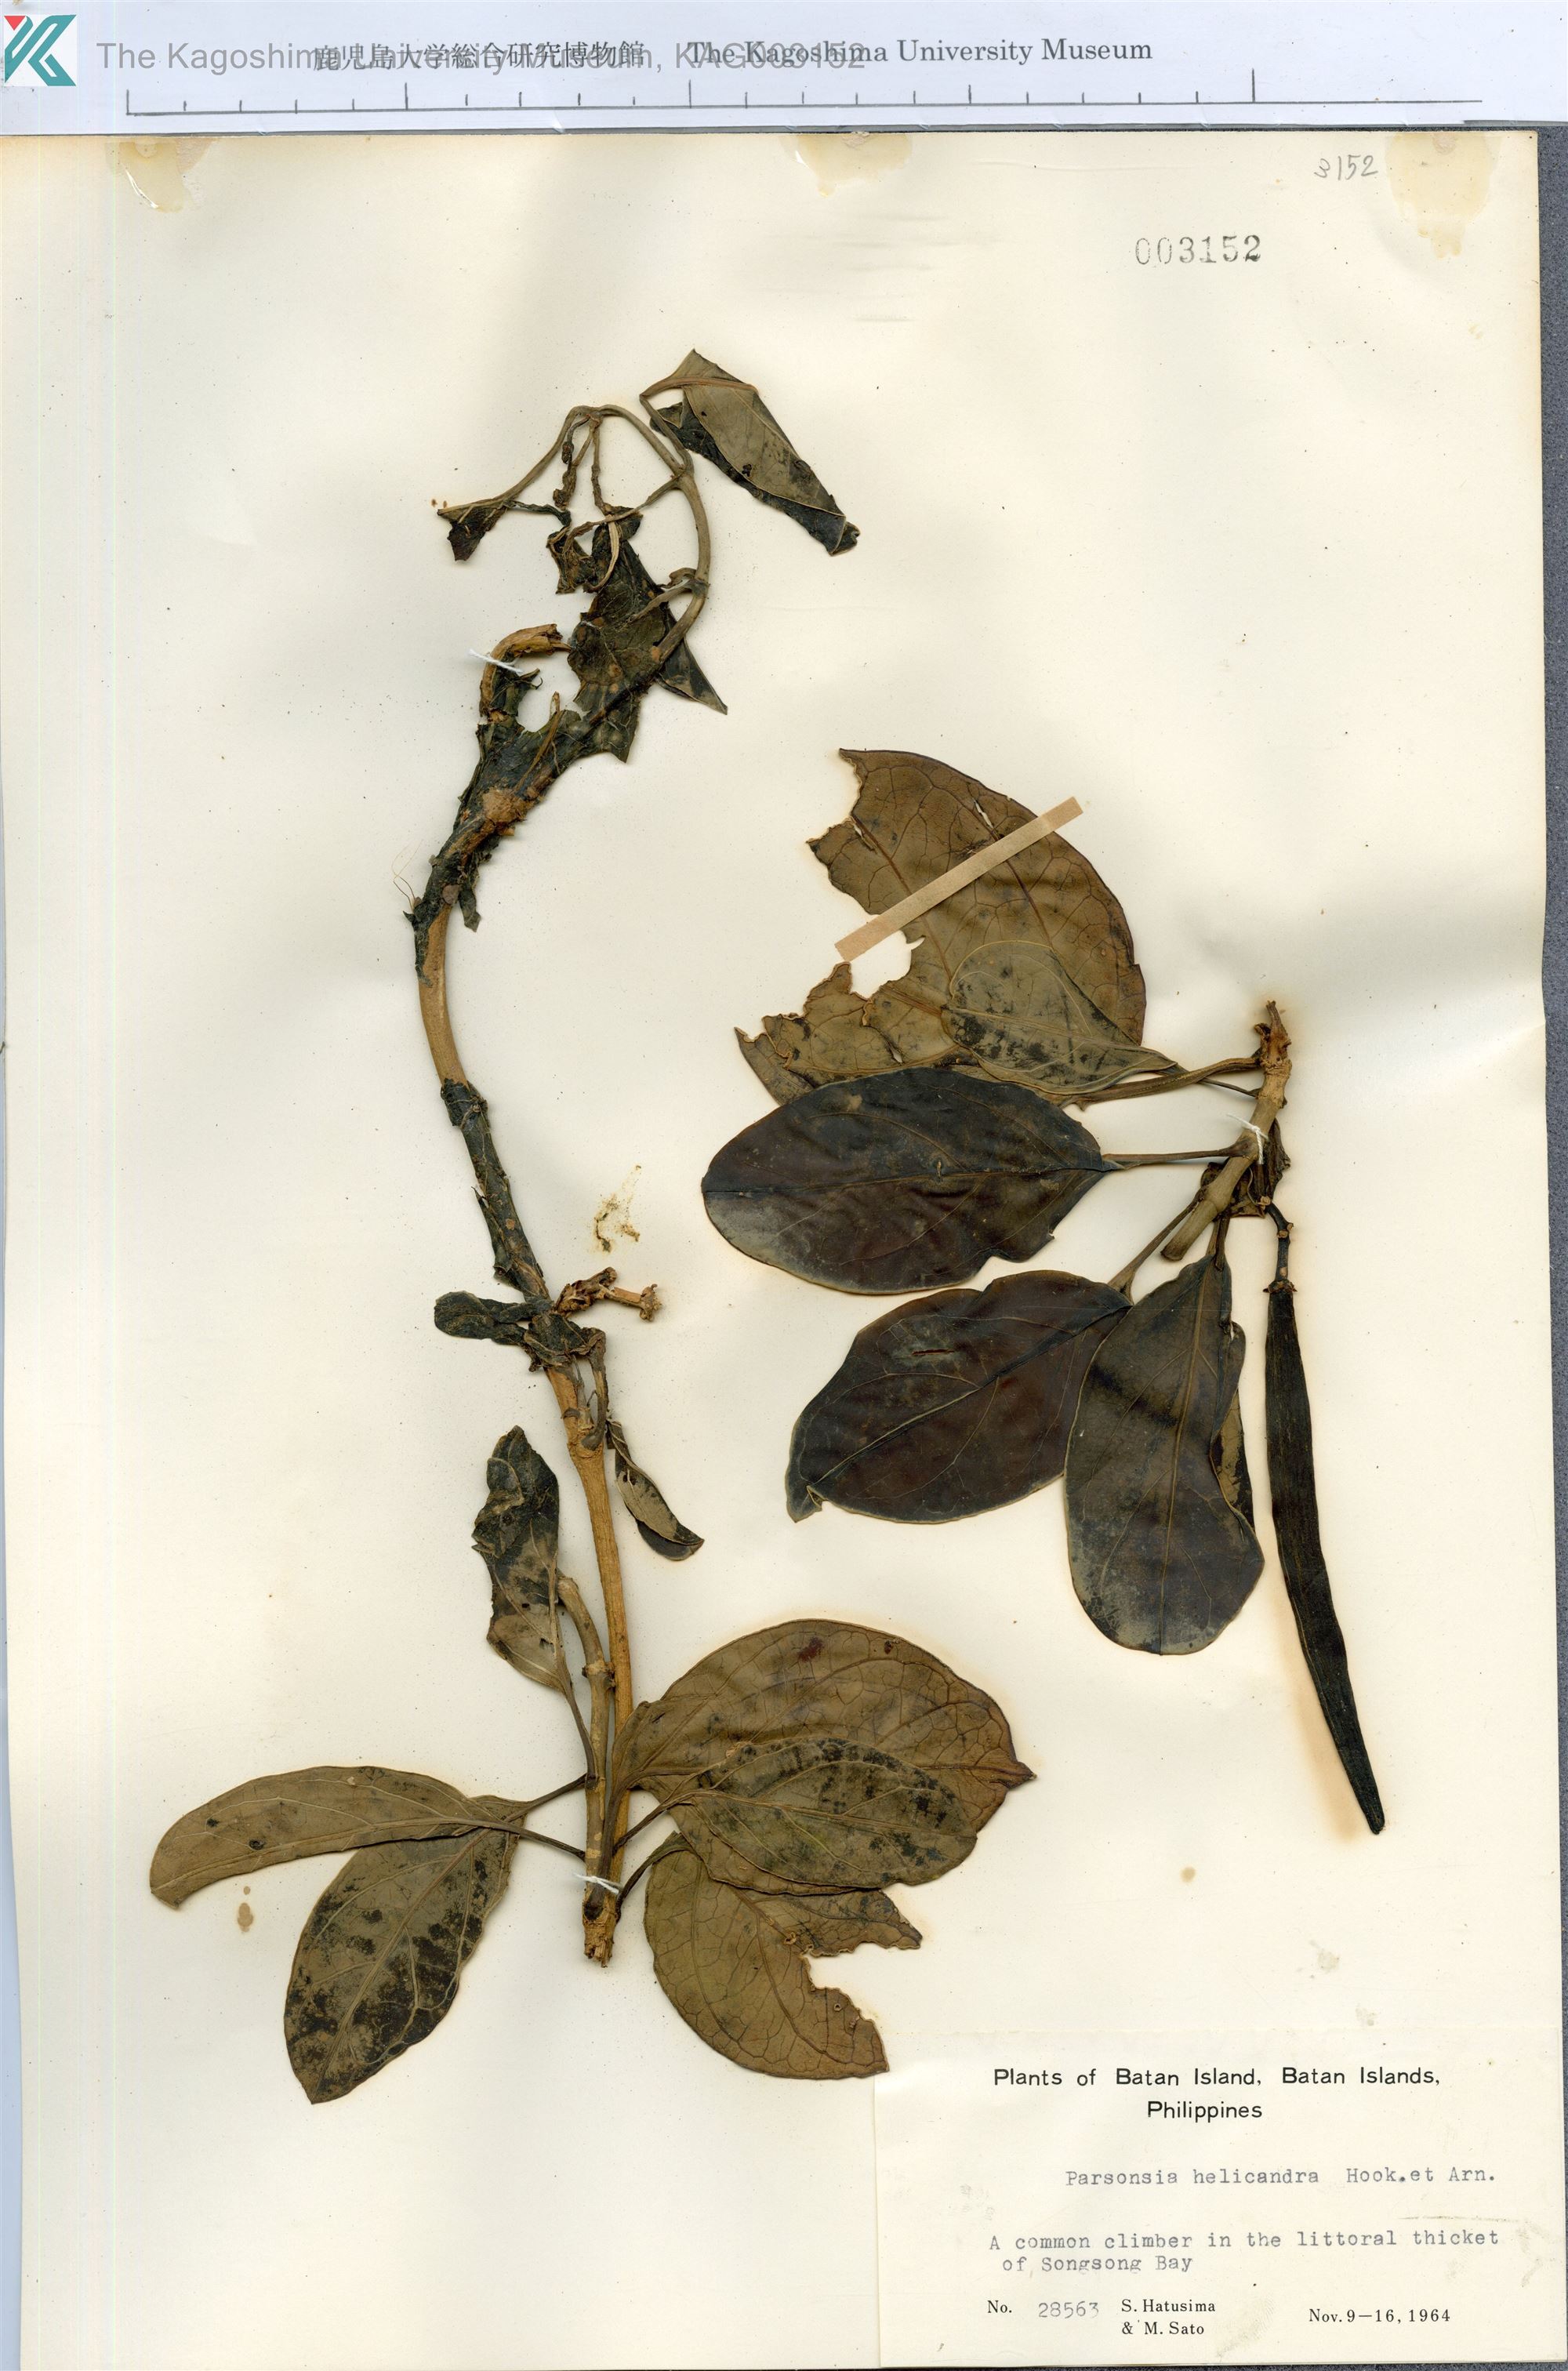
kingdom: Plantae
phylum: Tracheophyta
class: Magnoliopsida
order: Gentianales
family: Apocynaceae
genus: Parsonsia
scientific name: Parsonsia alboflavescens
